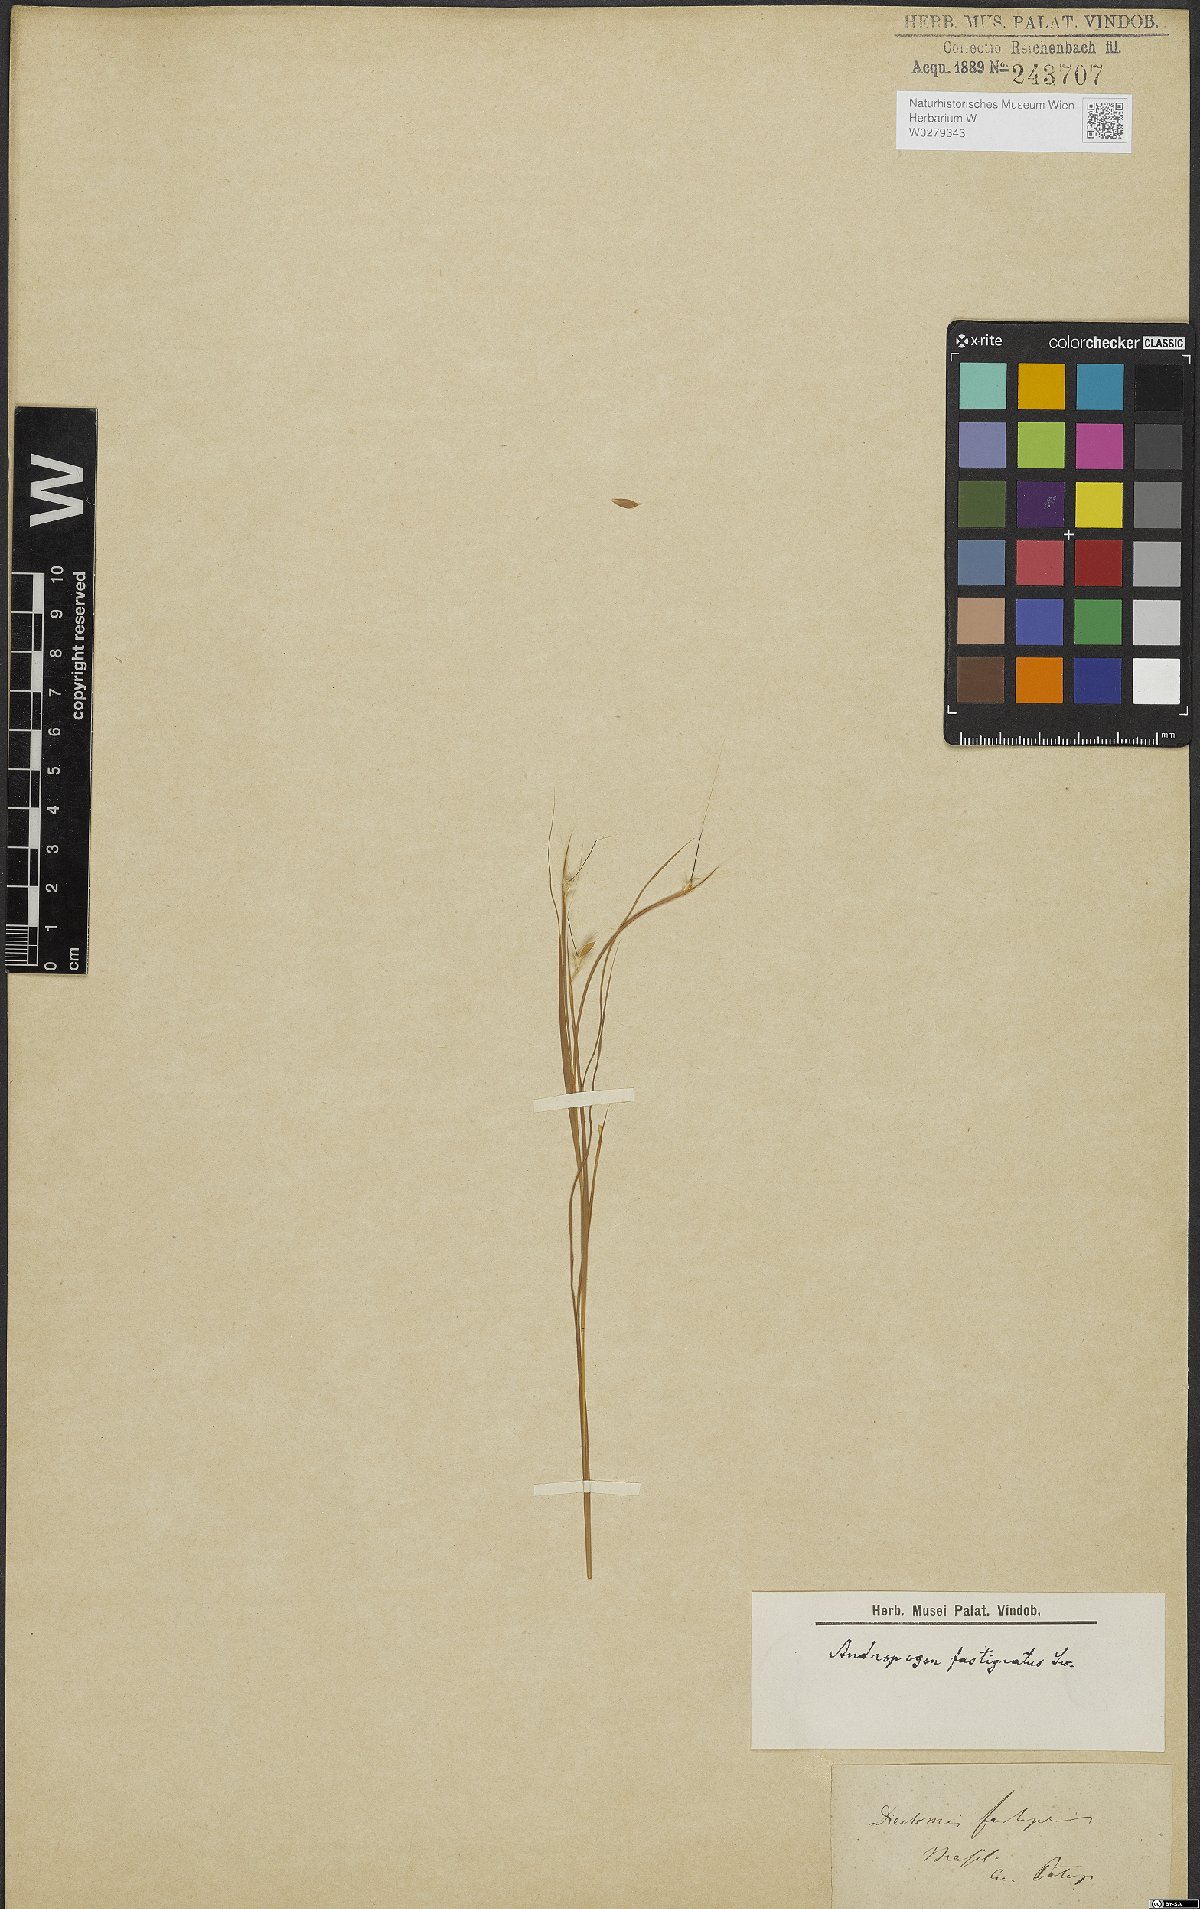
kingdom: Plantae
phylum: Tracheophyta
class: Liliopsida
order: Poales
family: Poaceae
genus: Diectomis
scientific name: Diectomis fastigiata
